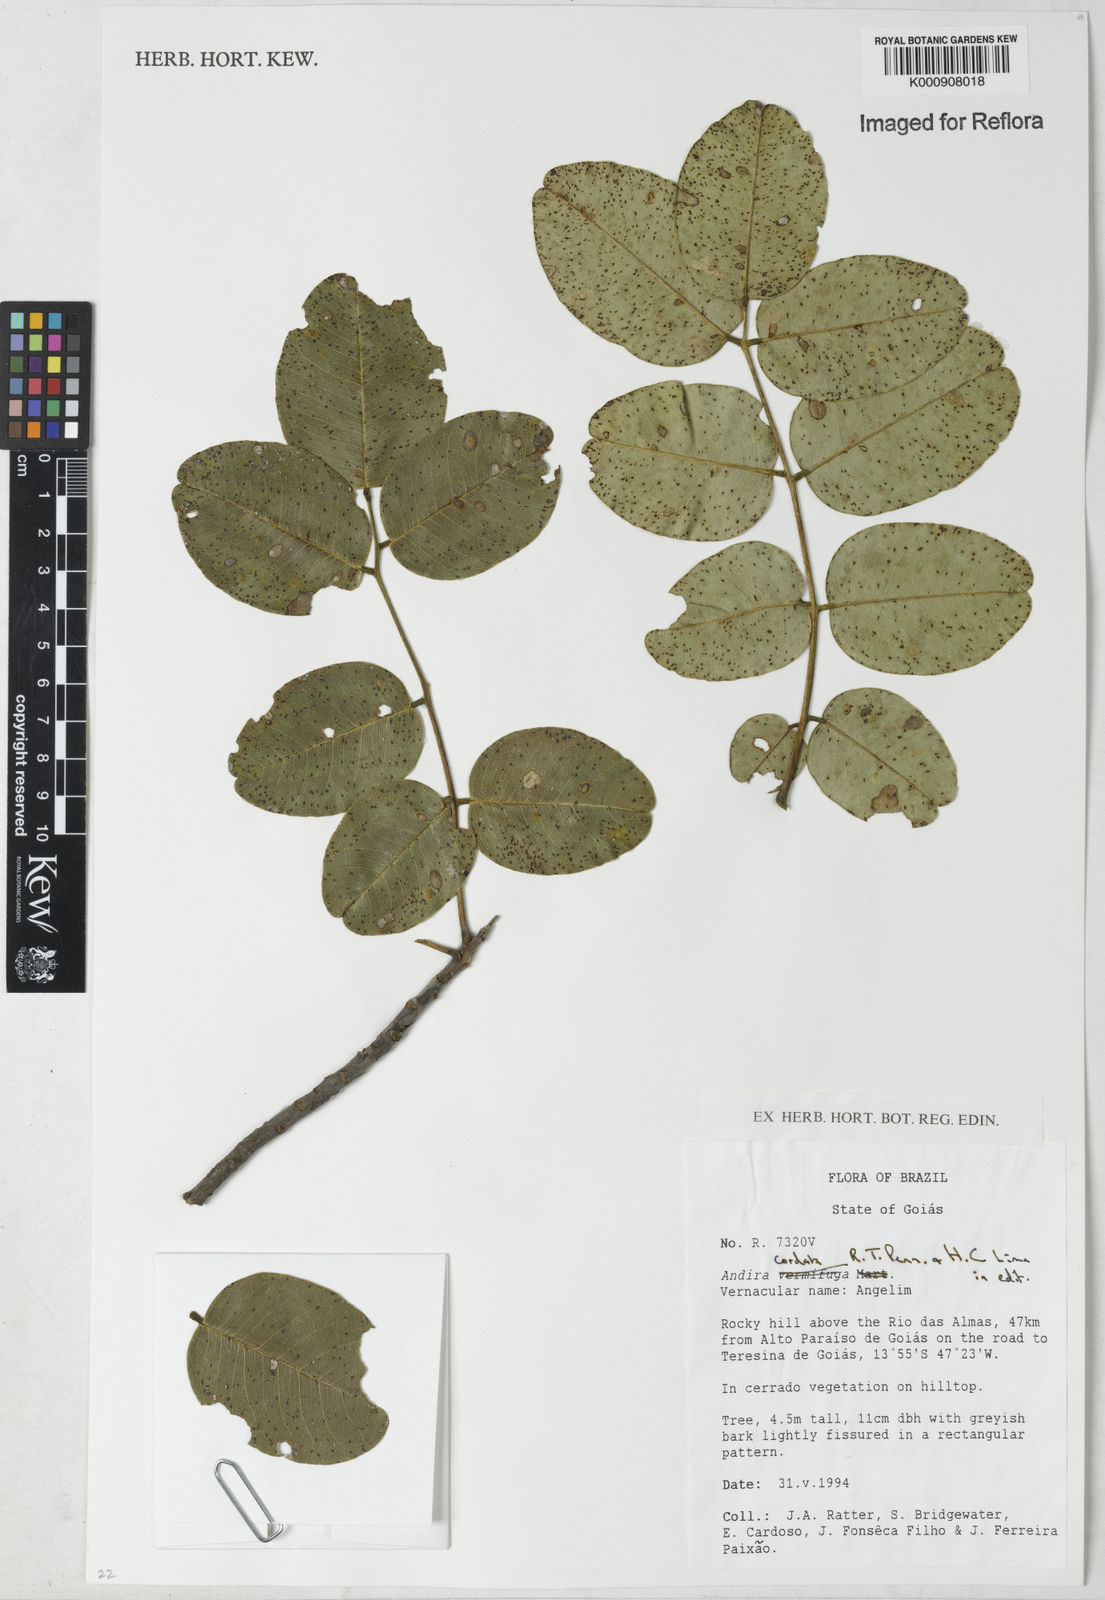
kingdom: Plantae
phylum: Tracheophyta
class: Magnoliopsida
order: Fabales
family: Fabaceae
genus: Andira
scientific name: Andira cordata
